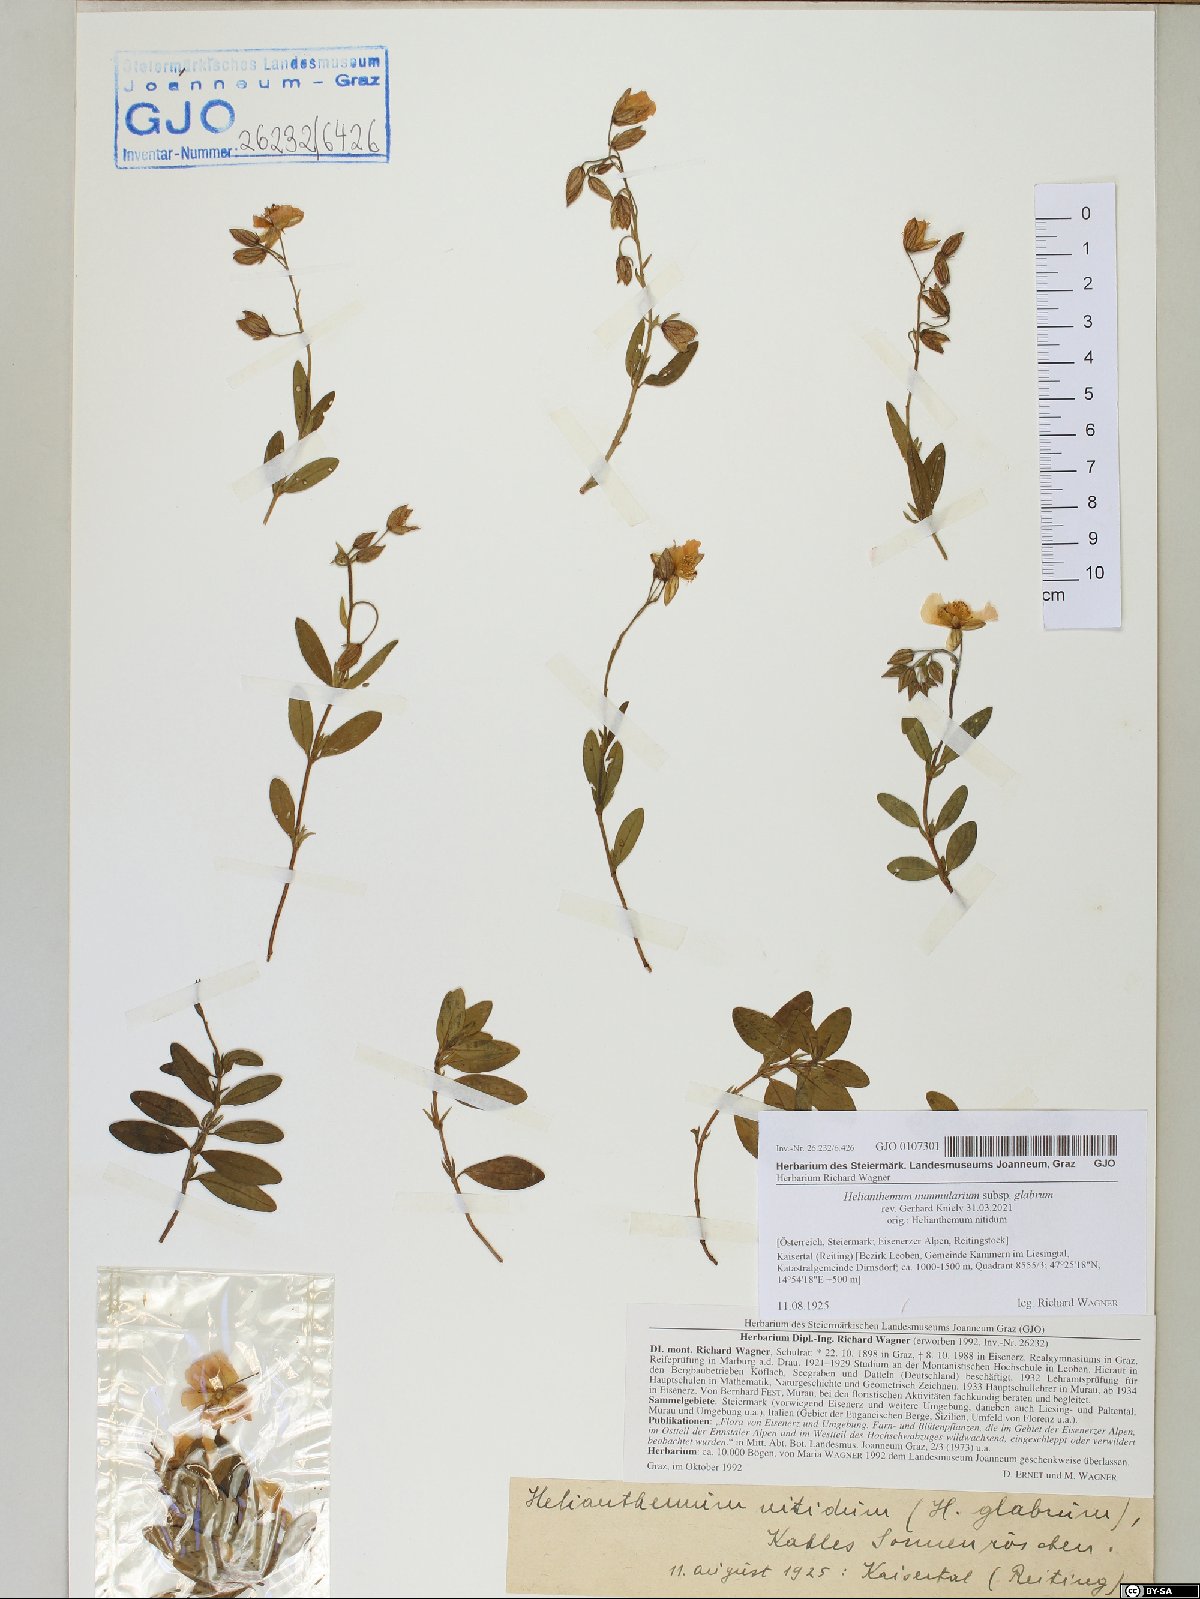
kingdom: Plantae
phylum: Tracheophyta
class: Magnoliopsida
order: Malvales
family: Cistaceae
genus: Helianthemum
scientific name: Helianthemum nummularium
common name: Common rock-rose
